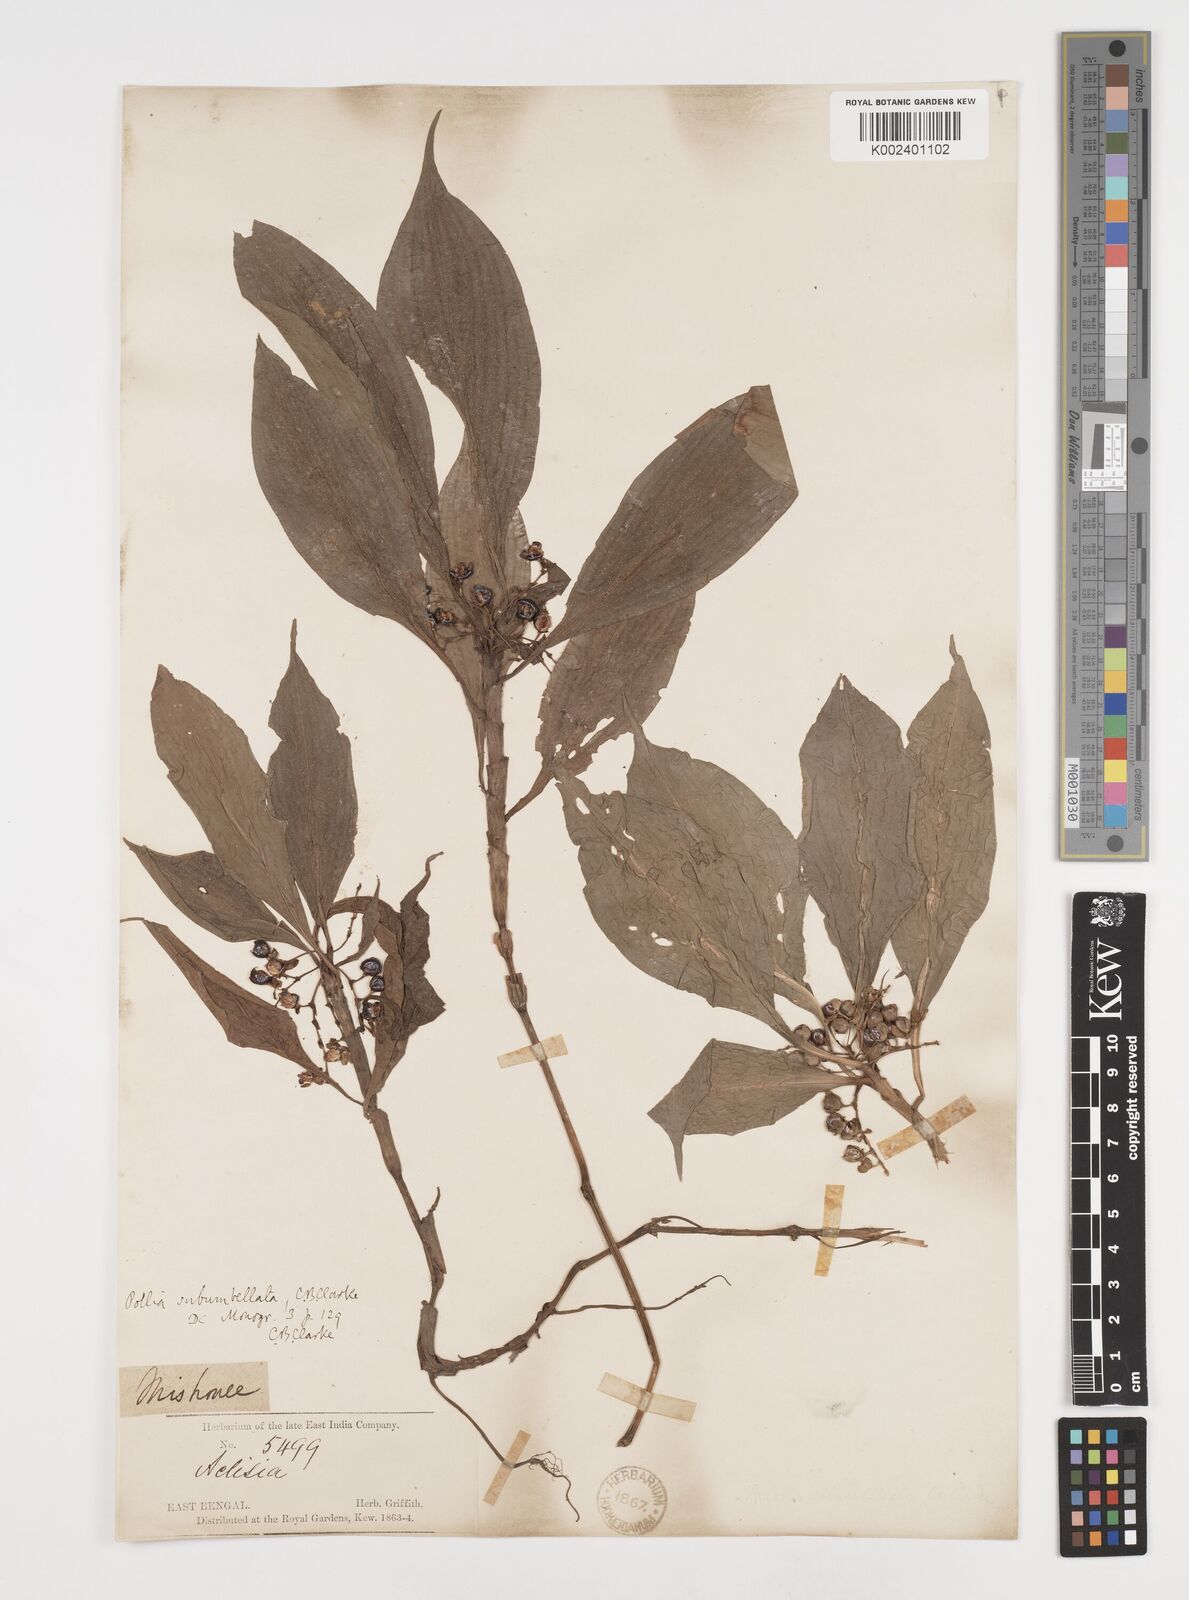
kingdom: Plantae
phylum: Tracheophyta
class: Liliopsida
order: Commelinales
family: Commelinaceae
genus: Pollia
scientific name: Pollia subumbellata
